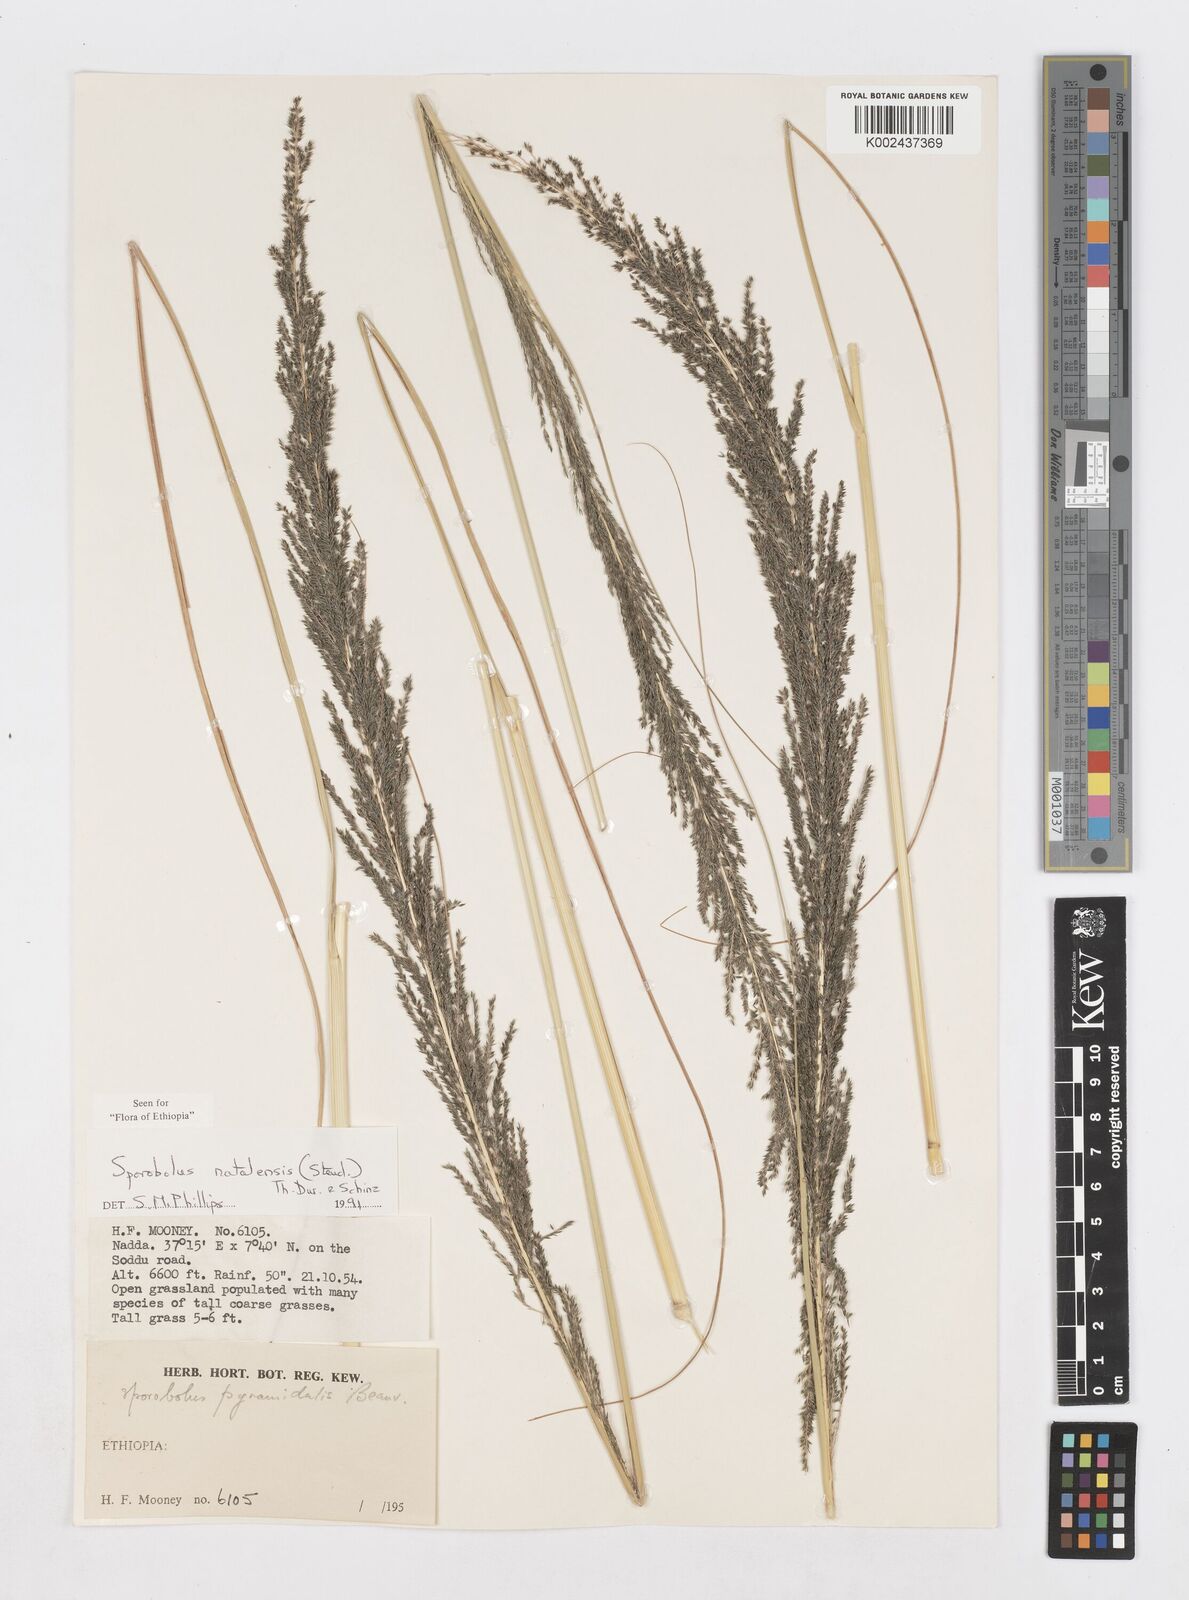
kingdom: Plantae
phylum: Tracheophyta
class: Liliopsida
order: Poales
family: Poaceae
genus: Sporobolus
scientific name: Sporobolus natalensis
